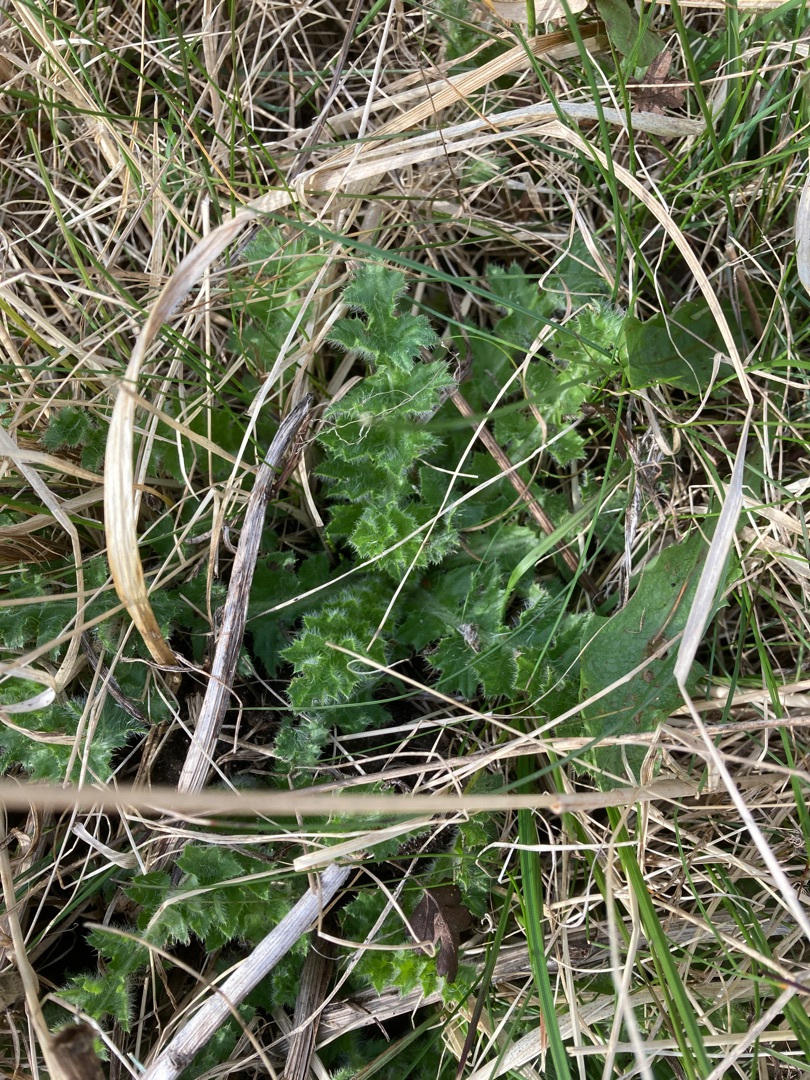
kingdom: Plantae
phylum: Tracheophyta
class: Magnoliopsida
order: Asterales
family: Asteraceae
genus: Cirsium
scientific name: Cirsium acaule
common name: Lav tidsel
